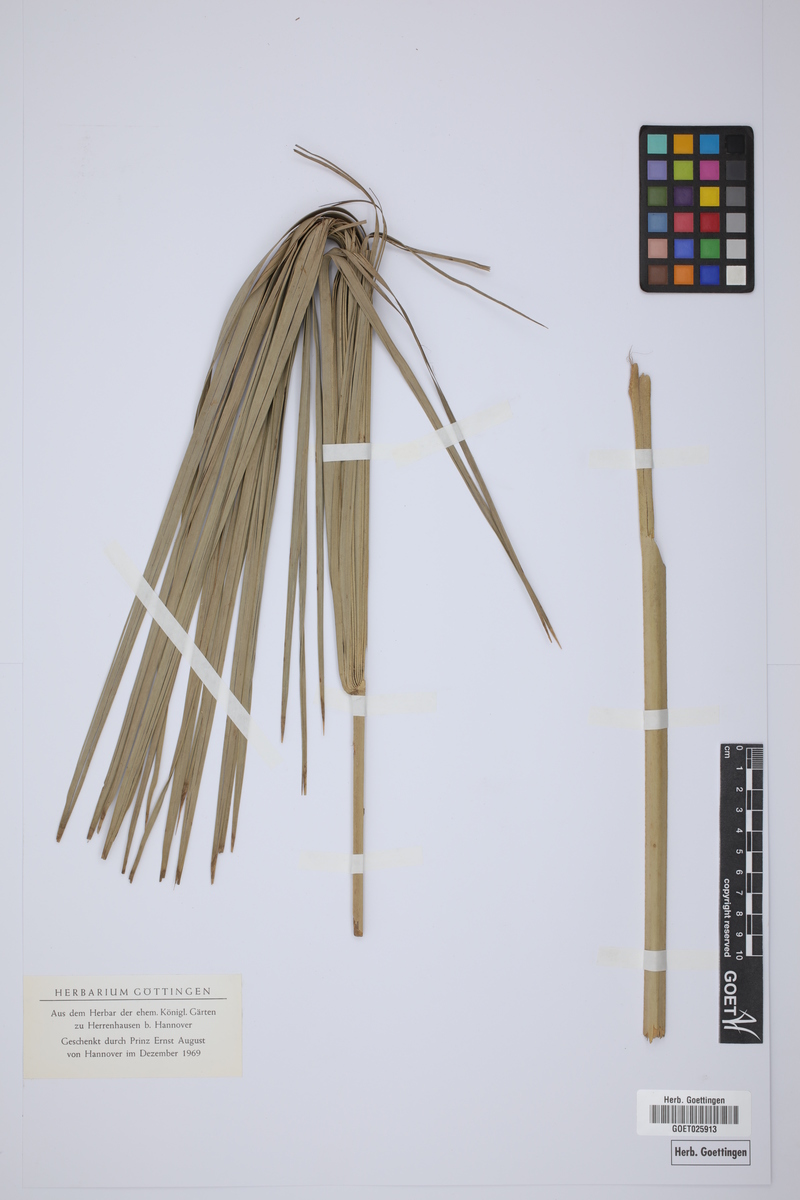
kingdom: Plantae
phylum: Tracheophyta
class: Liliopsida
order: Arecales
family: Arecaceae
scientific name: Arecaceae
